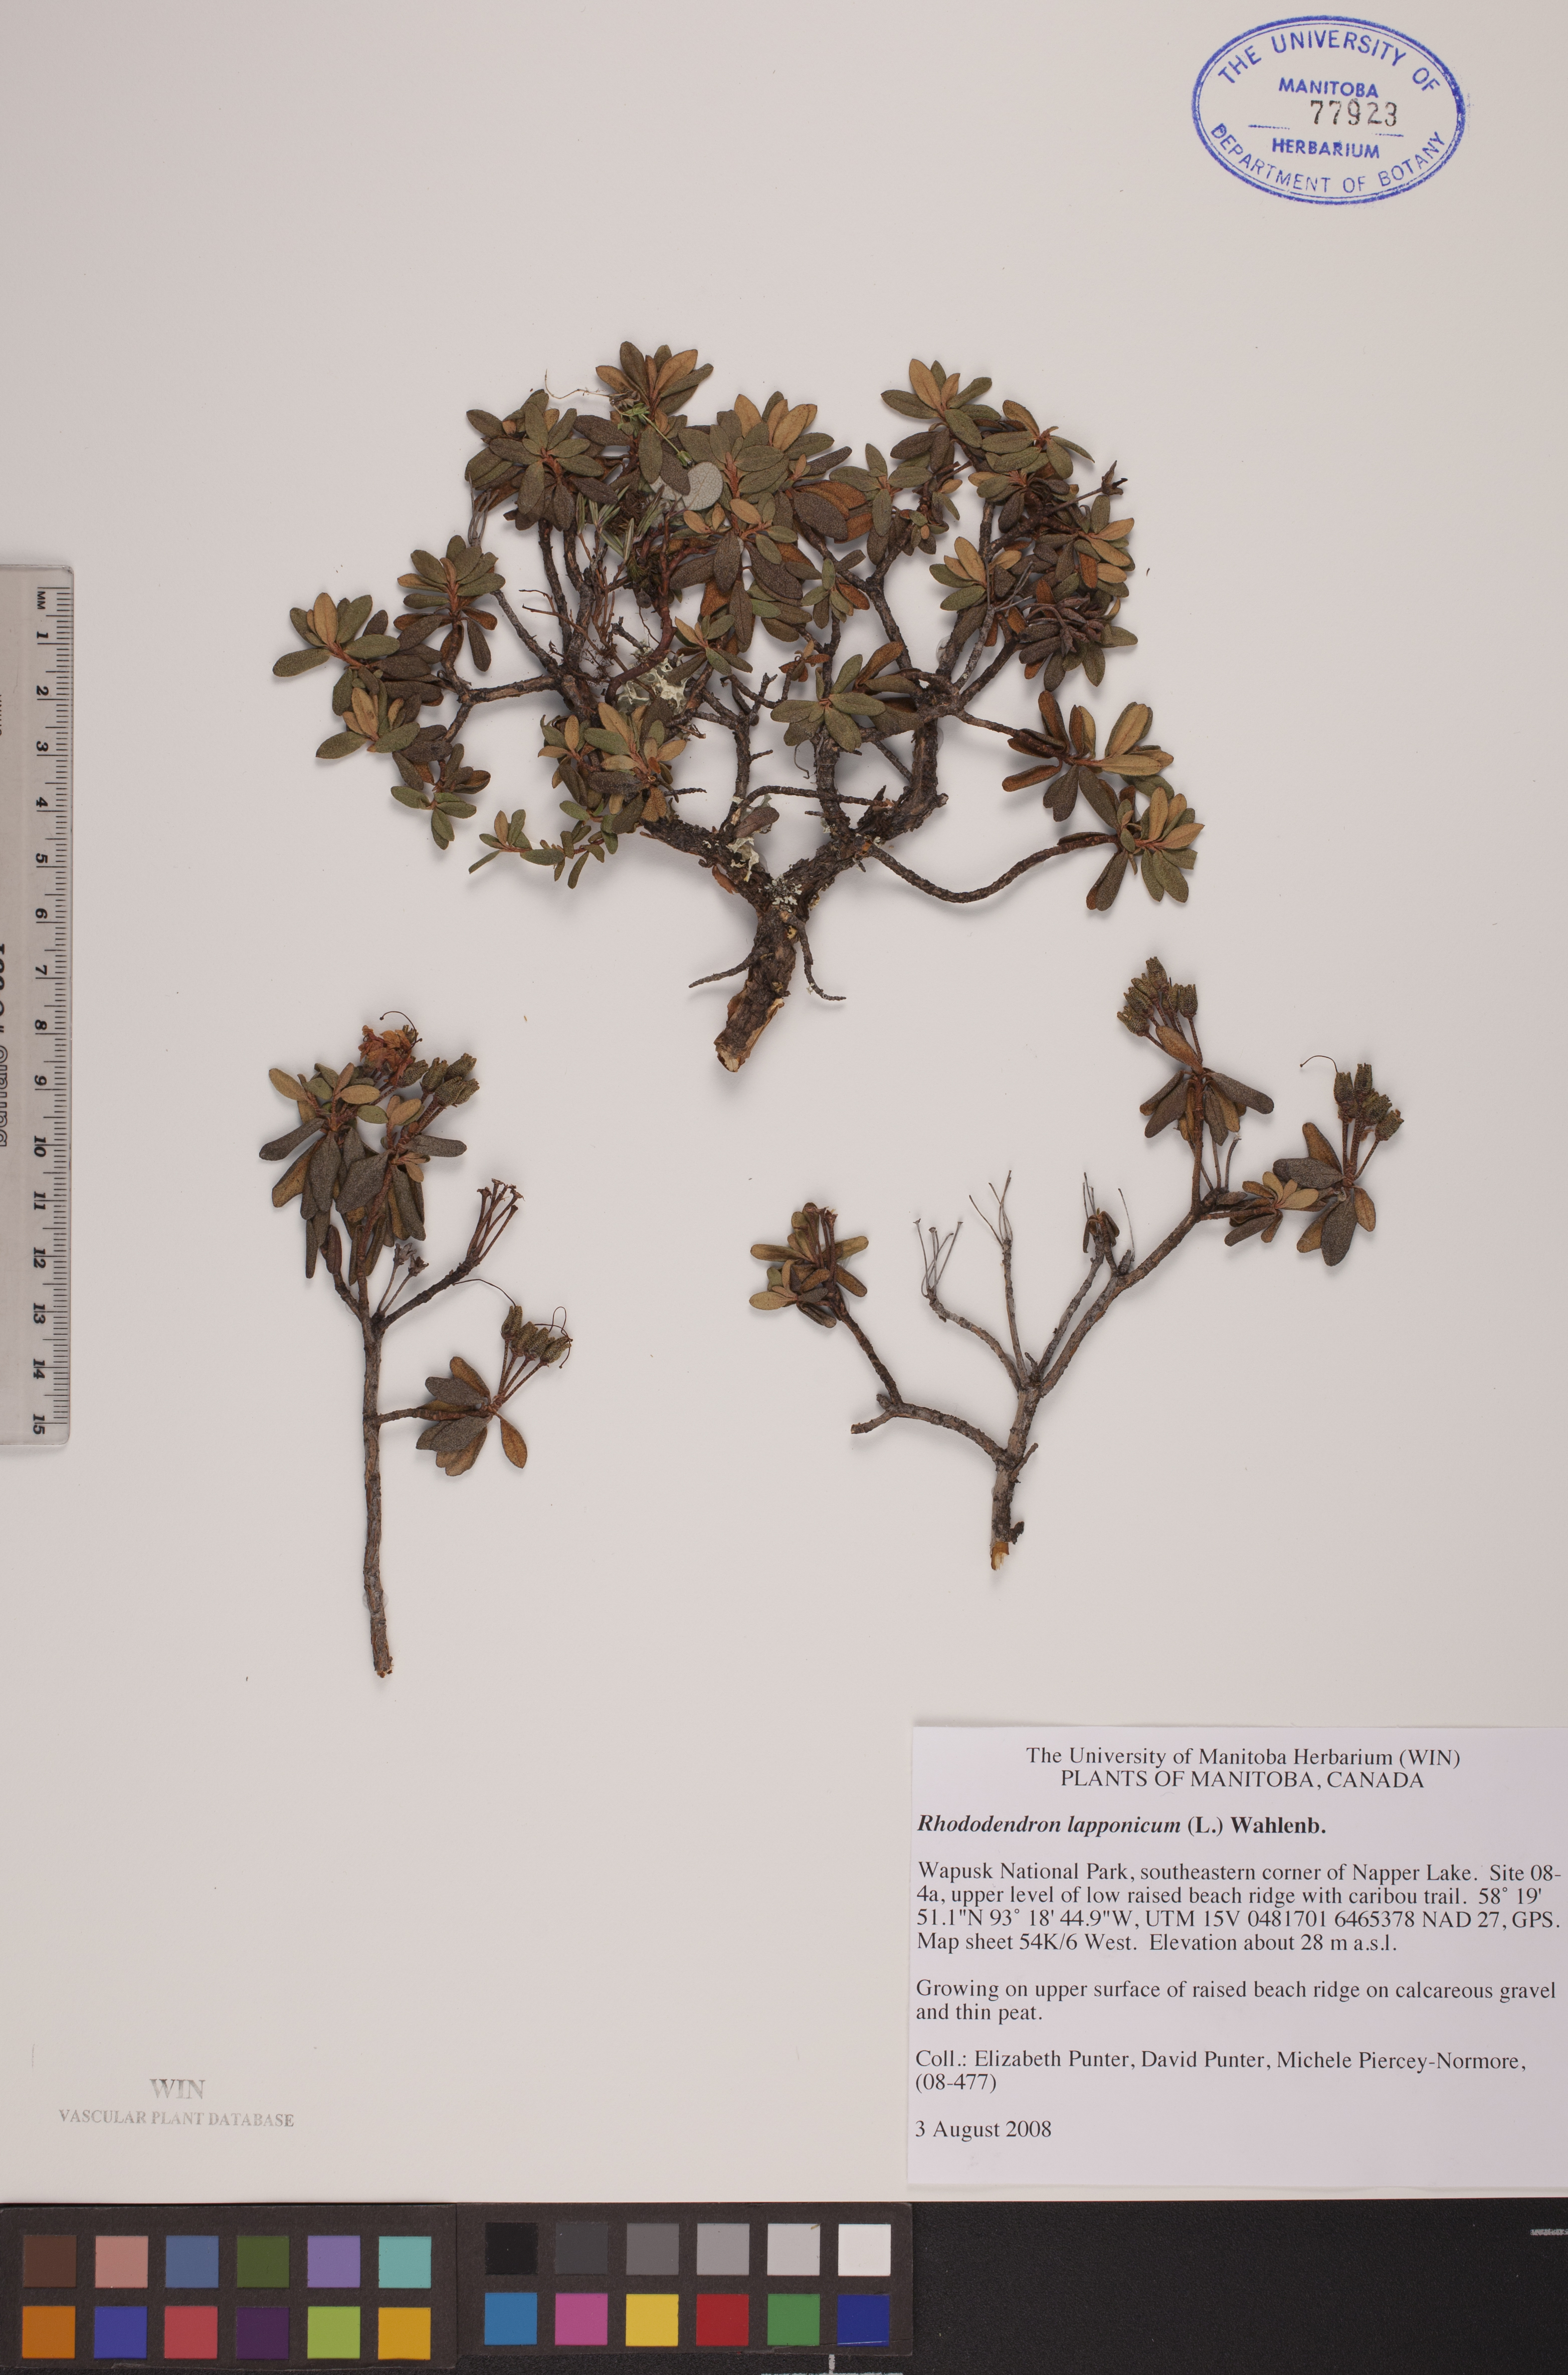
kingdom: Plantae
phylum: Tracheophyta
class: Magnoliopsida
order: Ericales
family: Ericaceae
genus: Rhododendron
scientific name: Rhododendron lapponicum
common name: Lapland rhododendron
